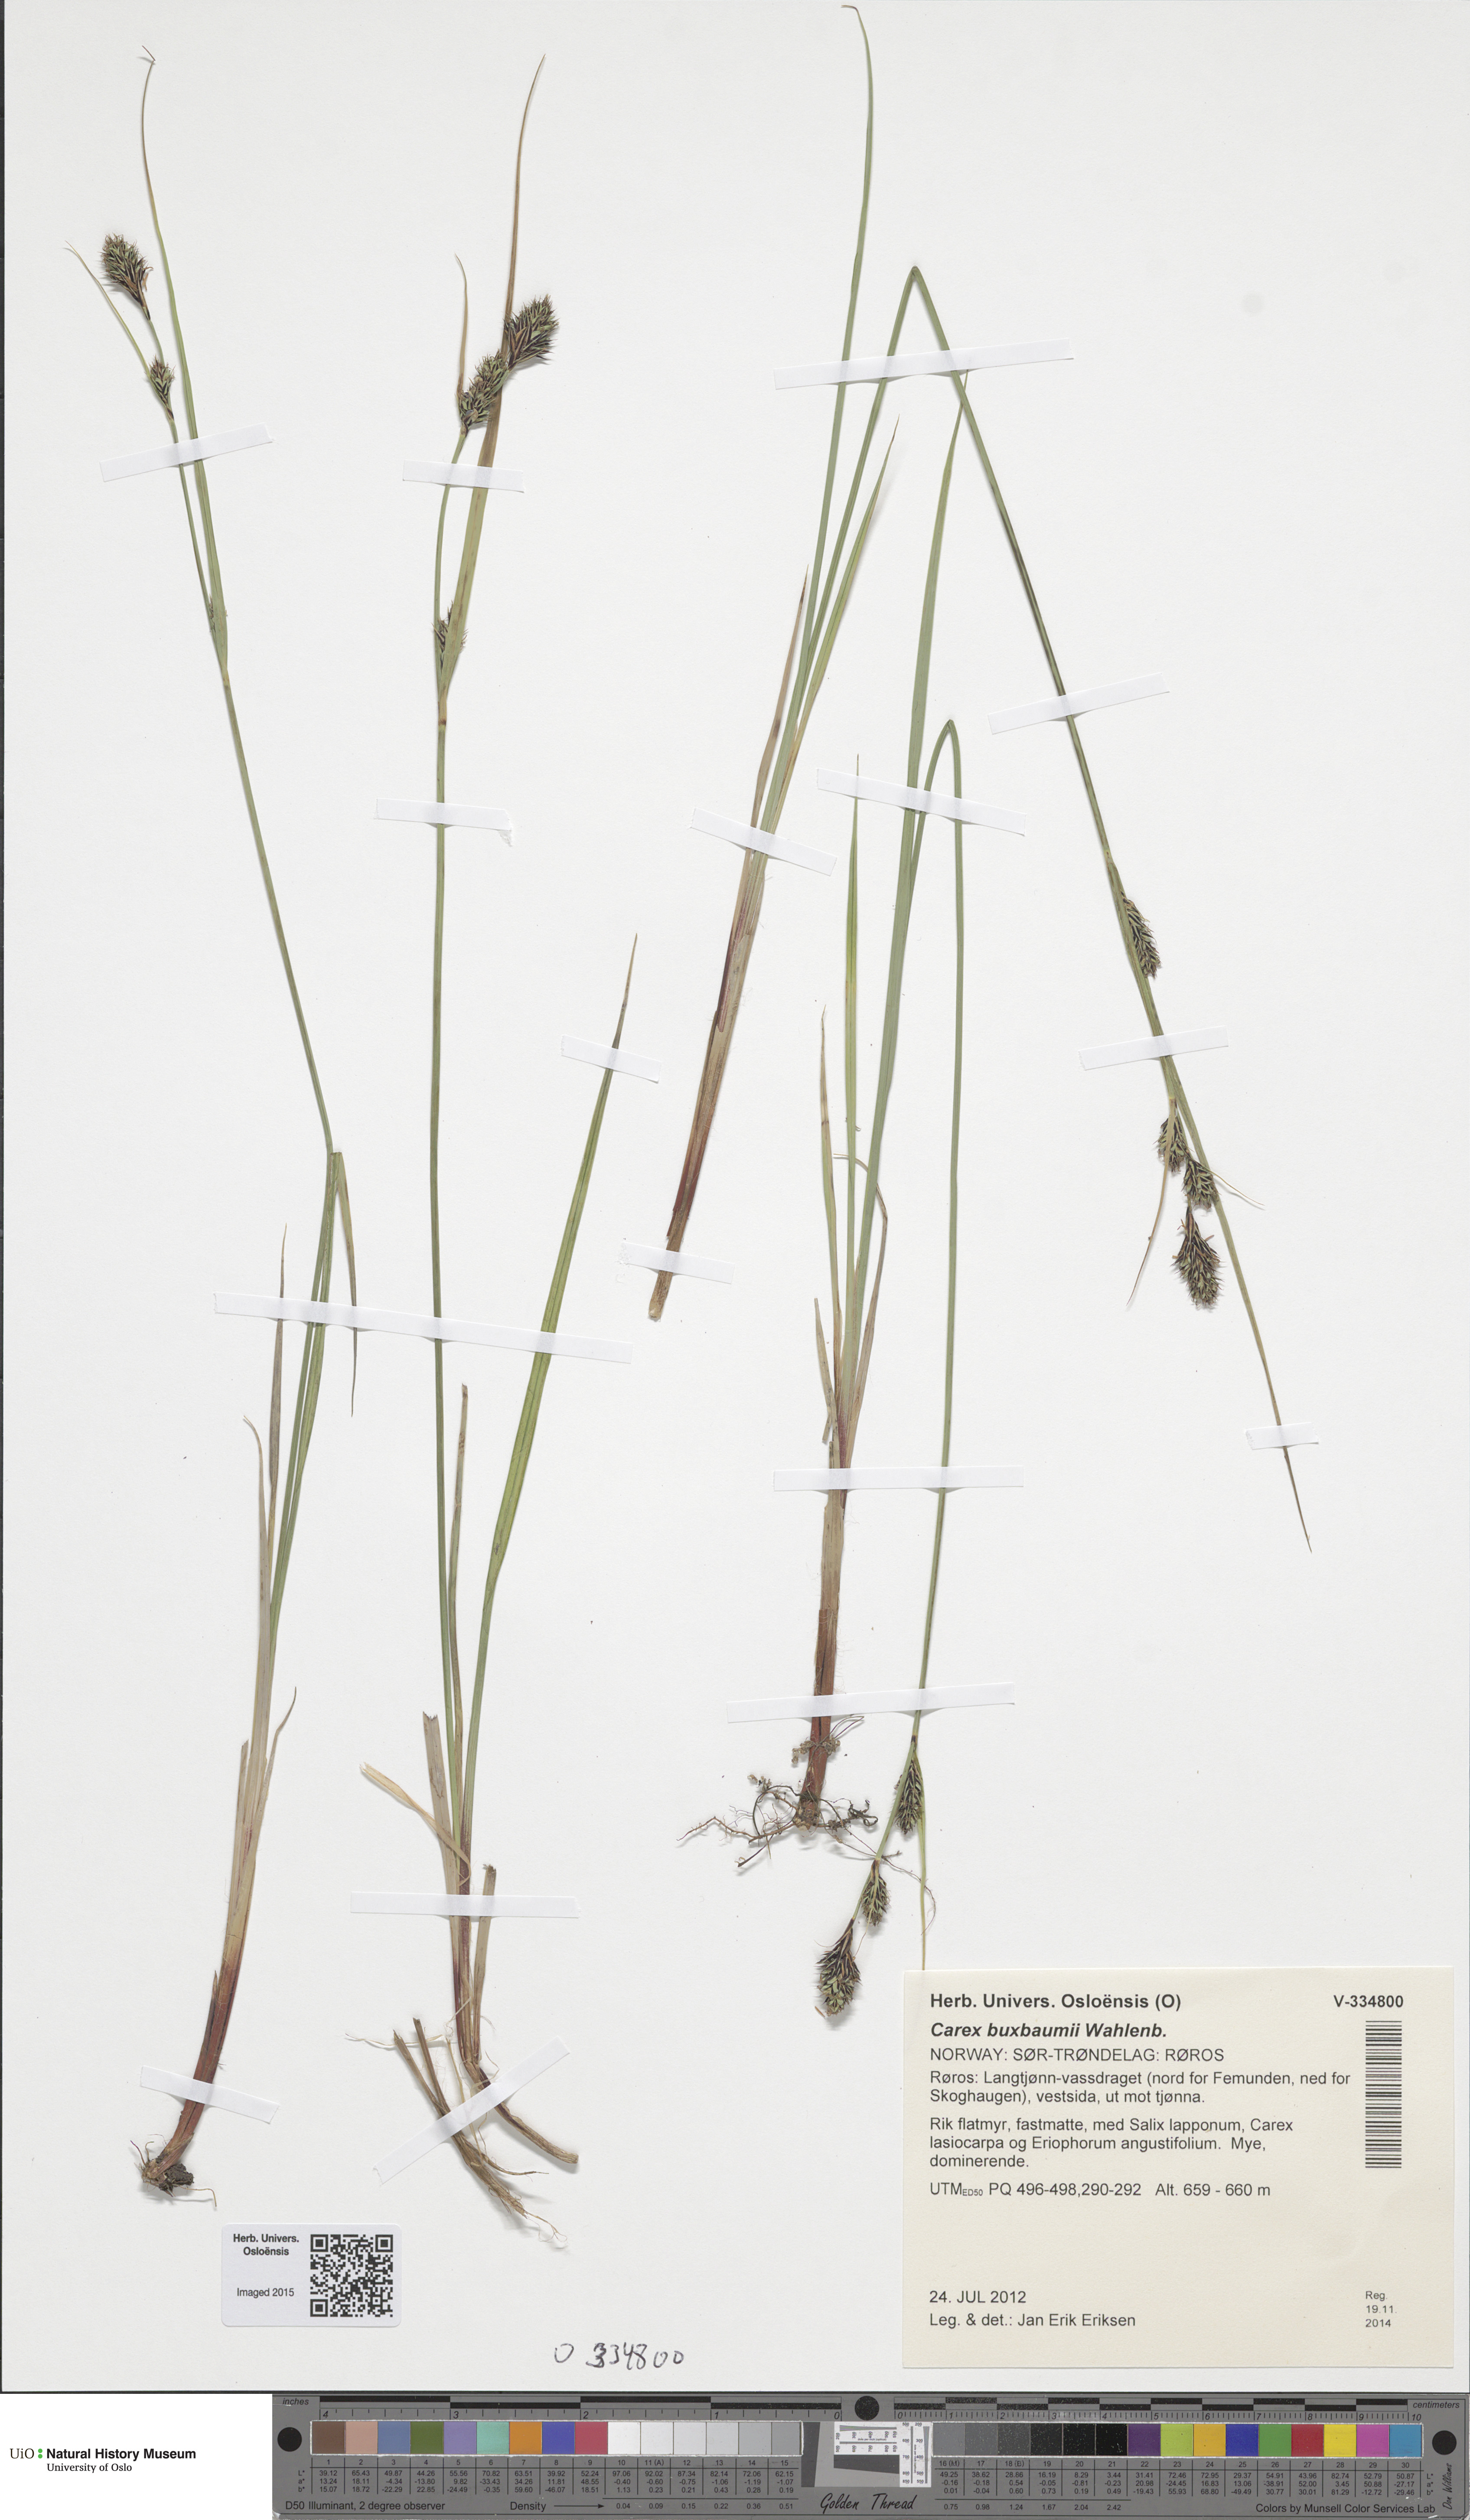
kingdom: Plantae
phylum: Tracheophyta
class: Liliopsida
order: Poales
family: Cyperaceae
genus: Carex
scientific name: Carex buxbaumii
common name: Club sedge
